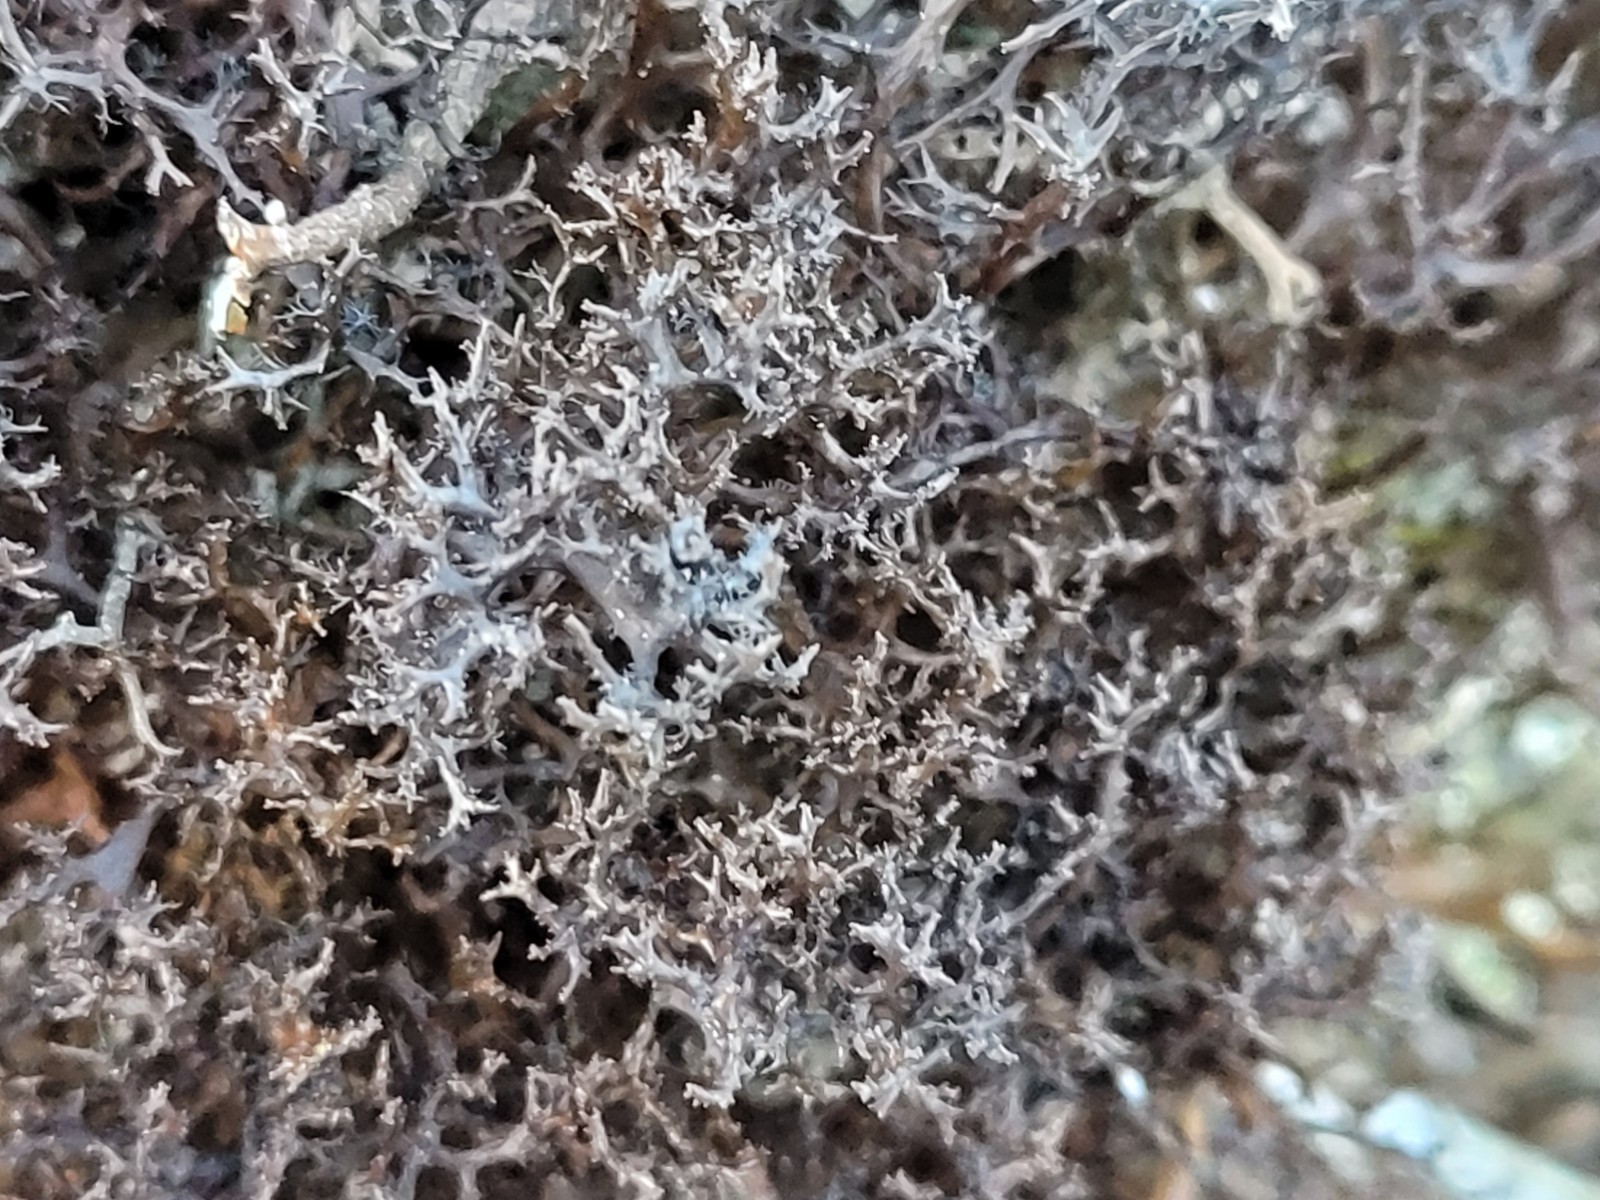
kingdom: Fungi
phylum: Ascomycota
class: Lecanoromycetes
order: Lecanorales
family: Parmeliaceae
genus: Cetraria
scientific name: Cetraria muricata
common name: tue-tjørnelav
